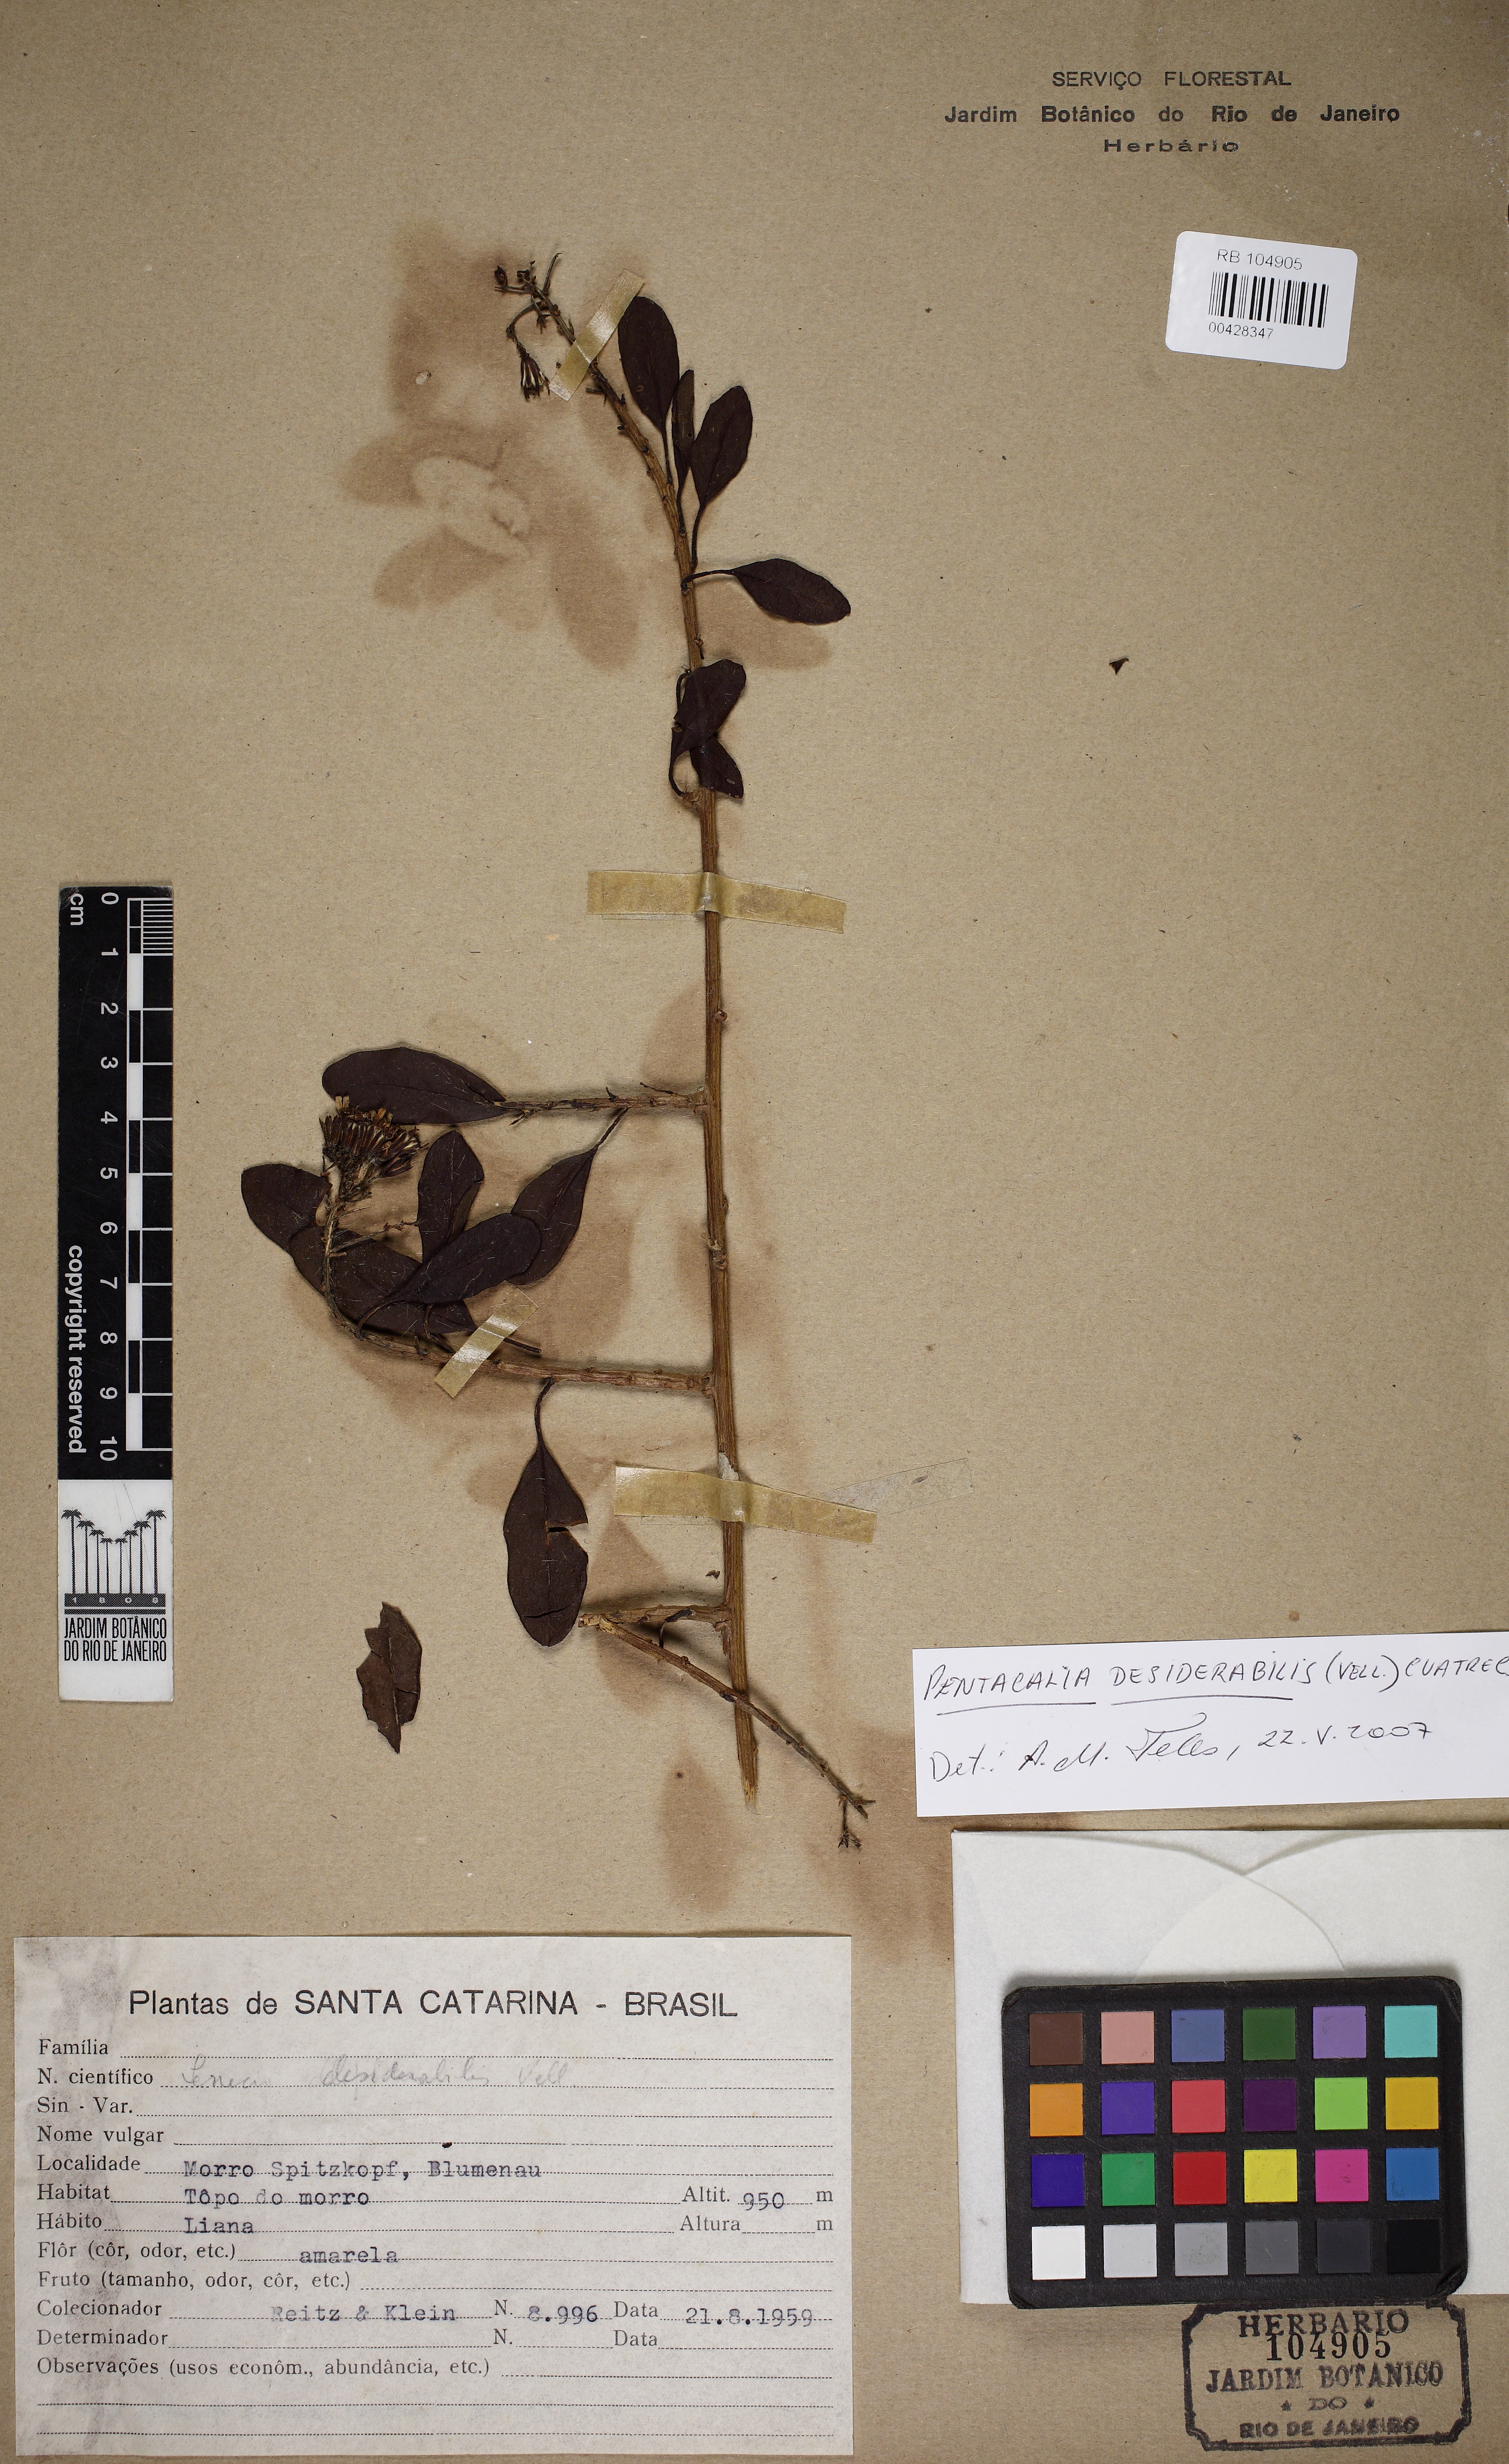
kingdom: Plantae
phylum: Tracheophyta
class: Magnoliopsida
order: Asterales
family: Asteraceae
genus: Pentacalia
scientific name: Pentacalia desiderabilis
